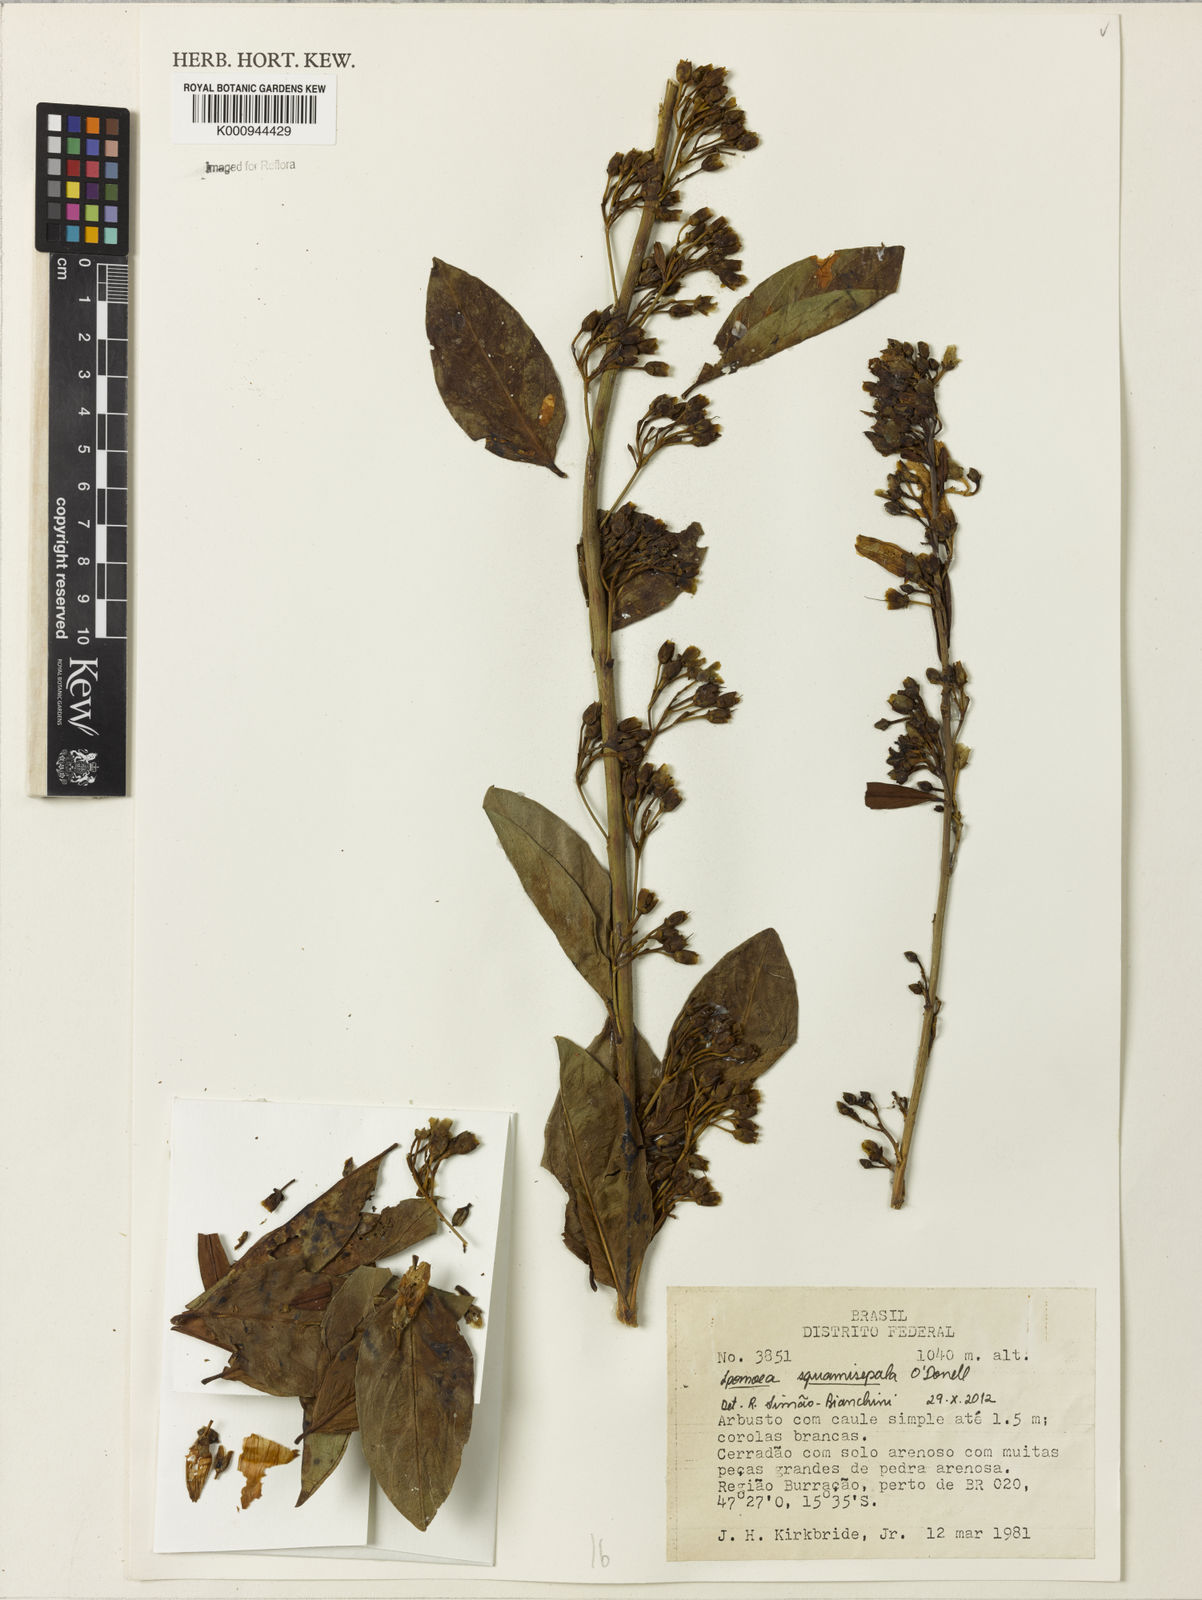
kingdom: Plantae
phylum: Tracheophyta
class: Magnoliopsida
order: Solanales
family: Convolvulaceae
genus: Ipomoea
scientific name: Ipomoea
